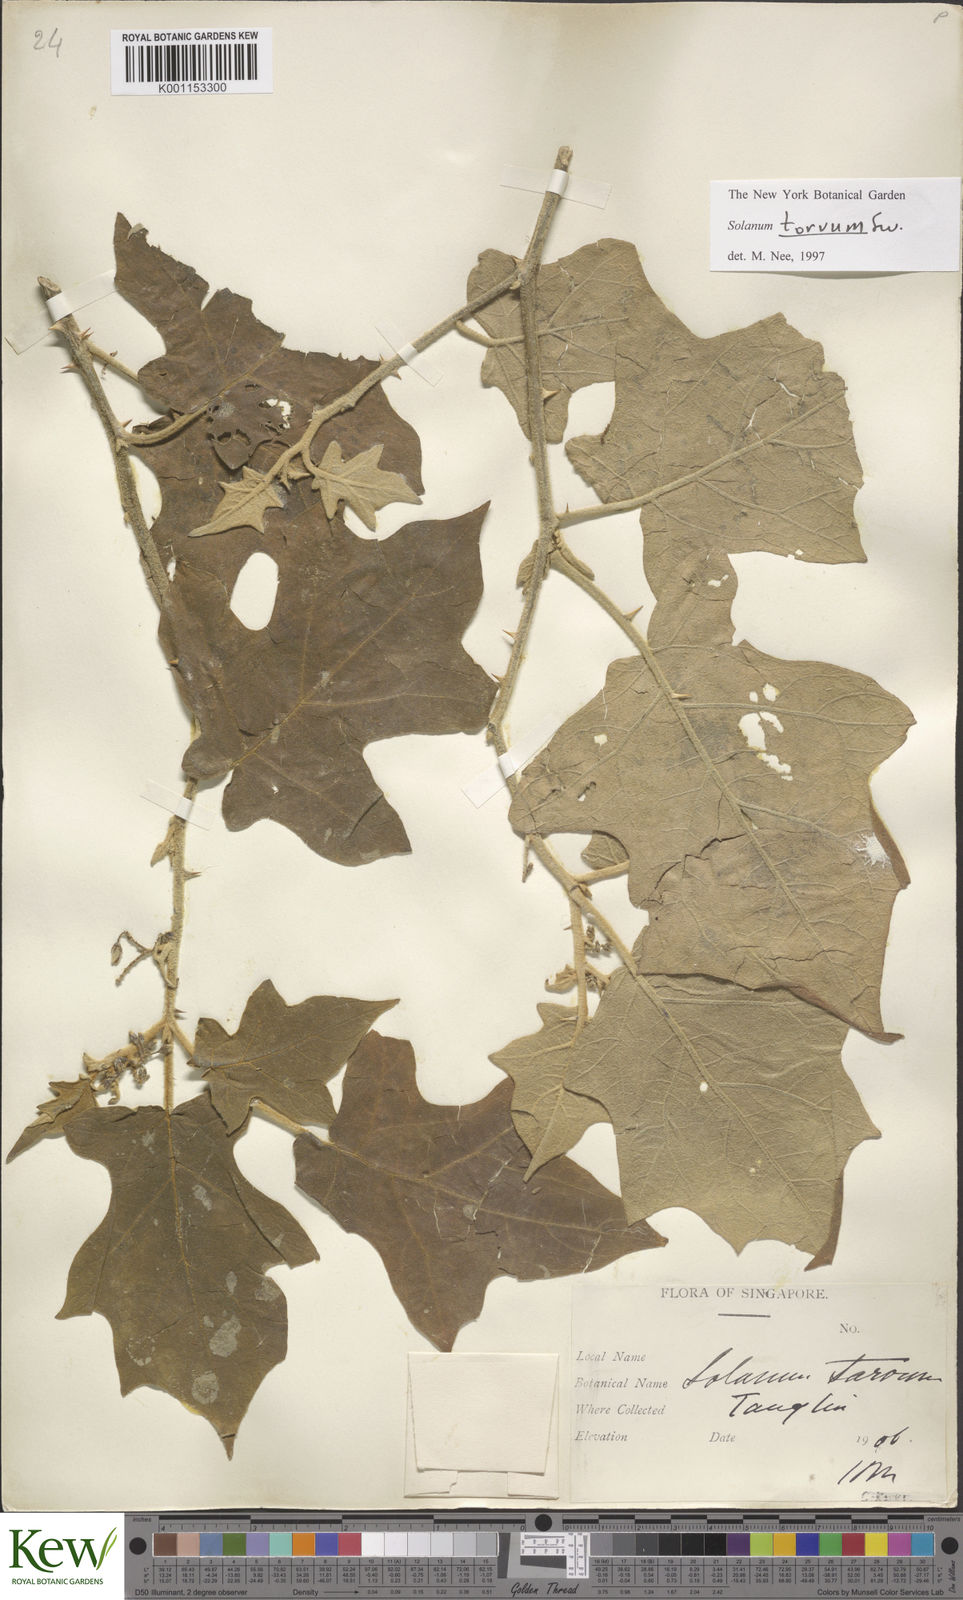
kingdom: Plantae
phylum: Tracheophyta
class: Magnoliopsida
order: Solanales
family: Solanaceae
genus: Solanum
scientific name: Solanum torvum
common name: Turkey berry
